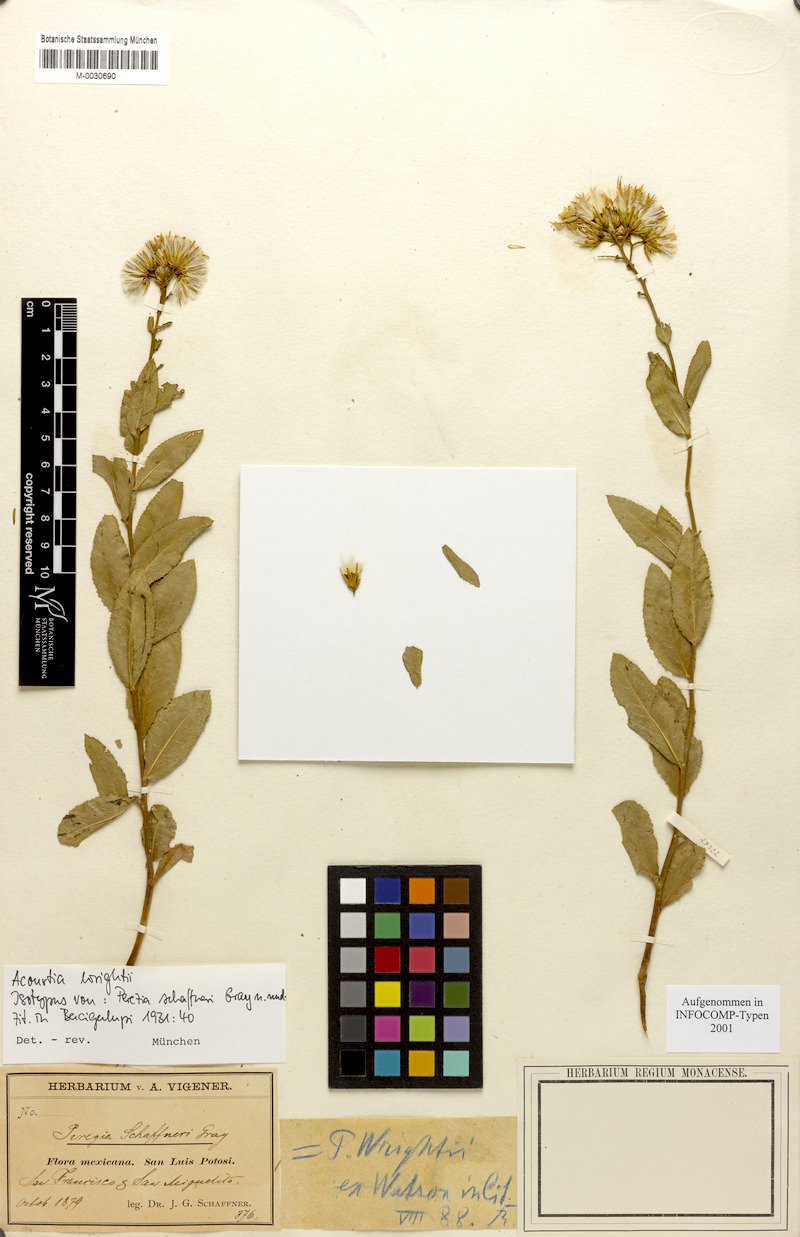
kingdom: Plantae
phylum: Tracheophyta
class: Magnoliopsida
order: Asterales
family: Asteraceae
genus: Acourtia
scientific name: Acourtia wrightii
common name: Brownfoot
